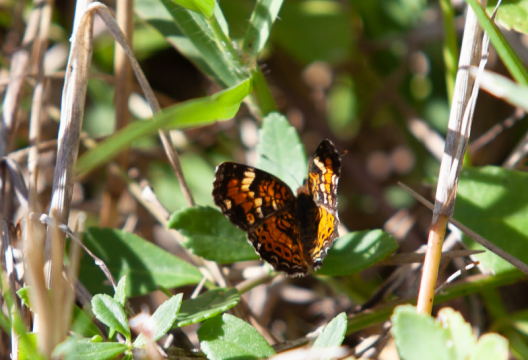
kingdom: Animalia
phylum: Arthropoda
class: Insecta
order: Lepidoptera
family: Nymphalidae
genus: Phyciodes
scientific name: Phyciodes phaon
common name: Phaon Crescent
